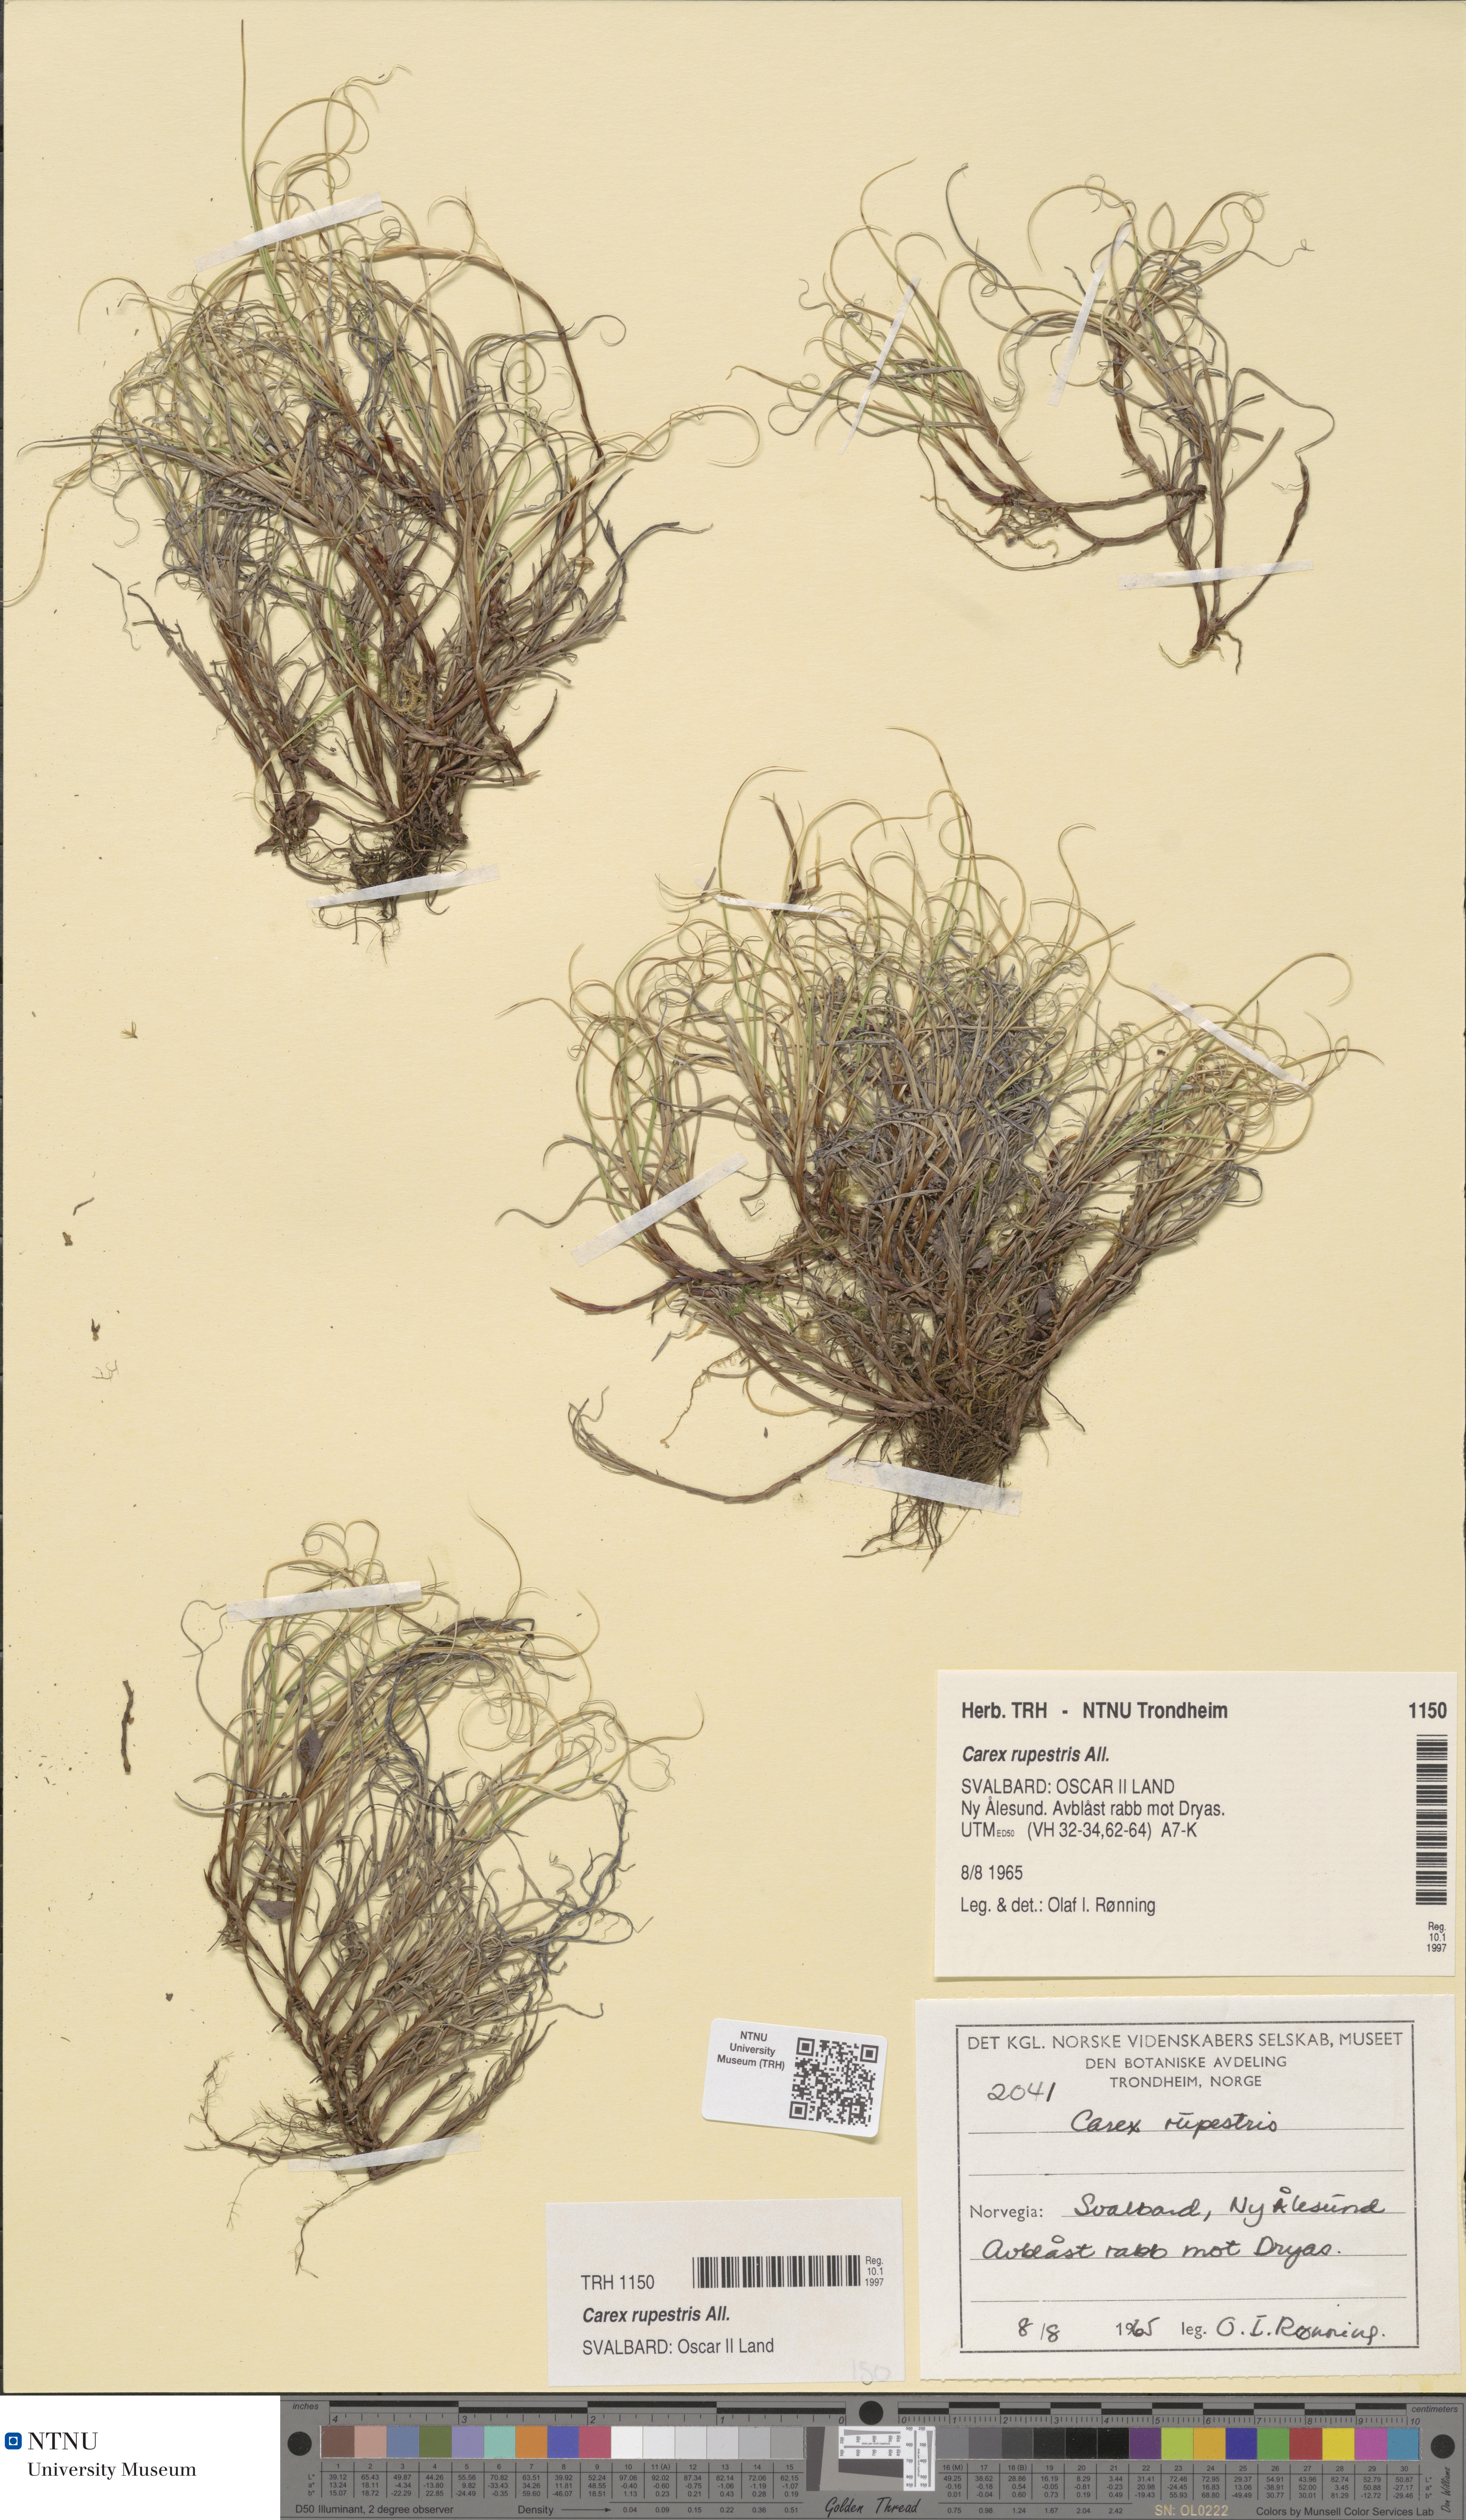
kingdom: Plantae
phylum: Tracheophyta
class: Liliopsida
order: Poales
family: Cyperaceae
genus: Carex
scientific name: Carex rupestris
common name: Rock sedge
